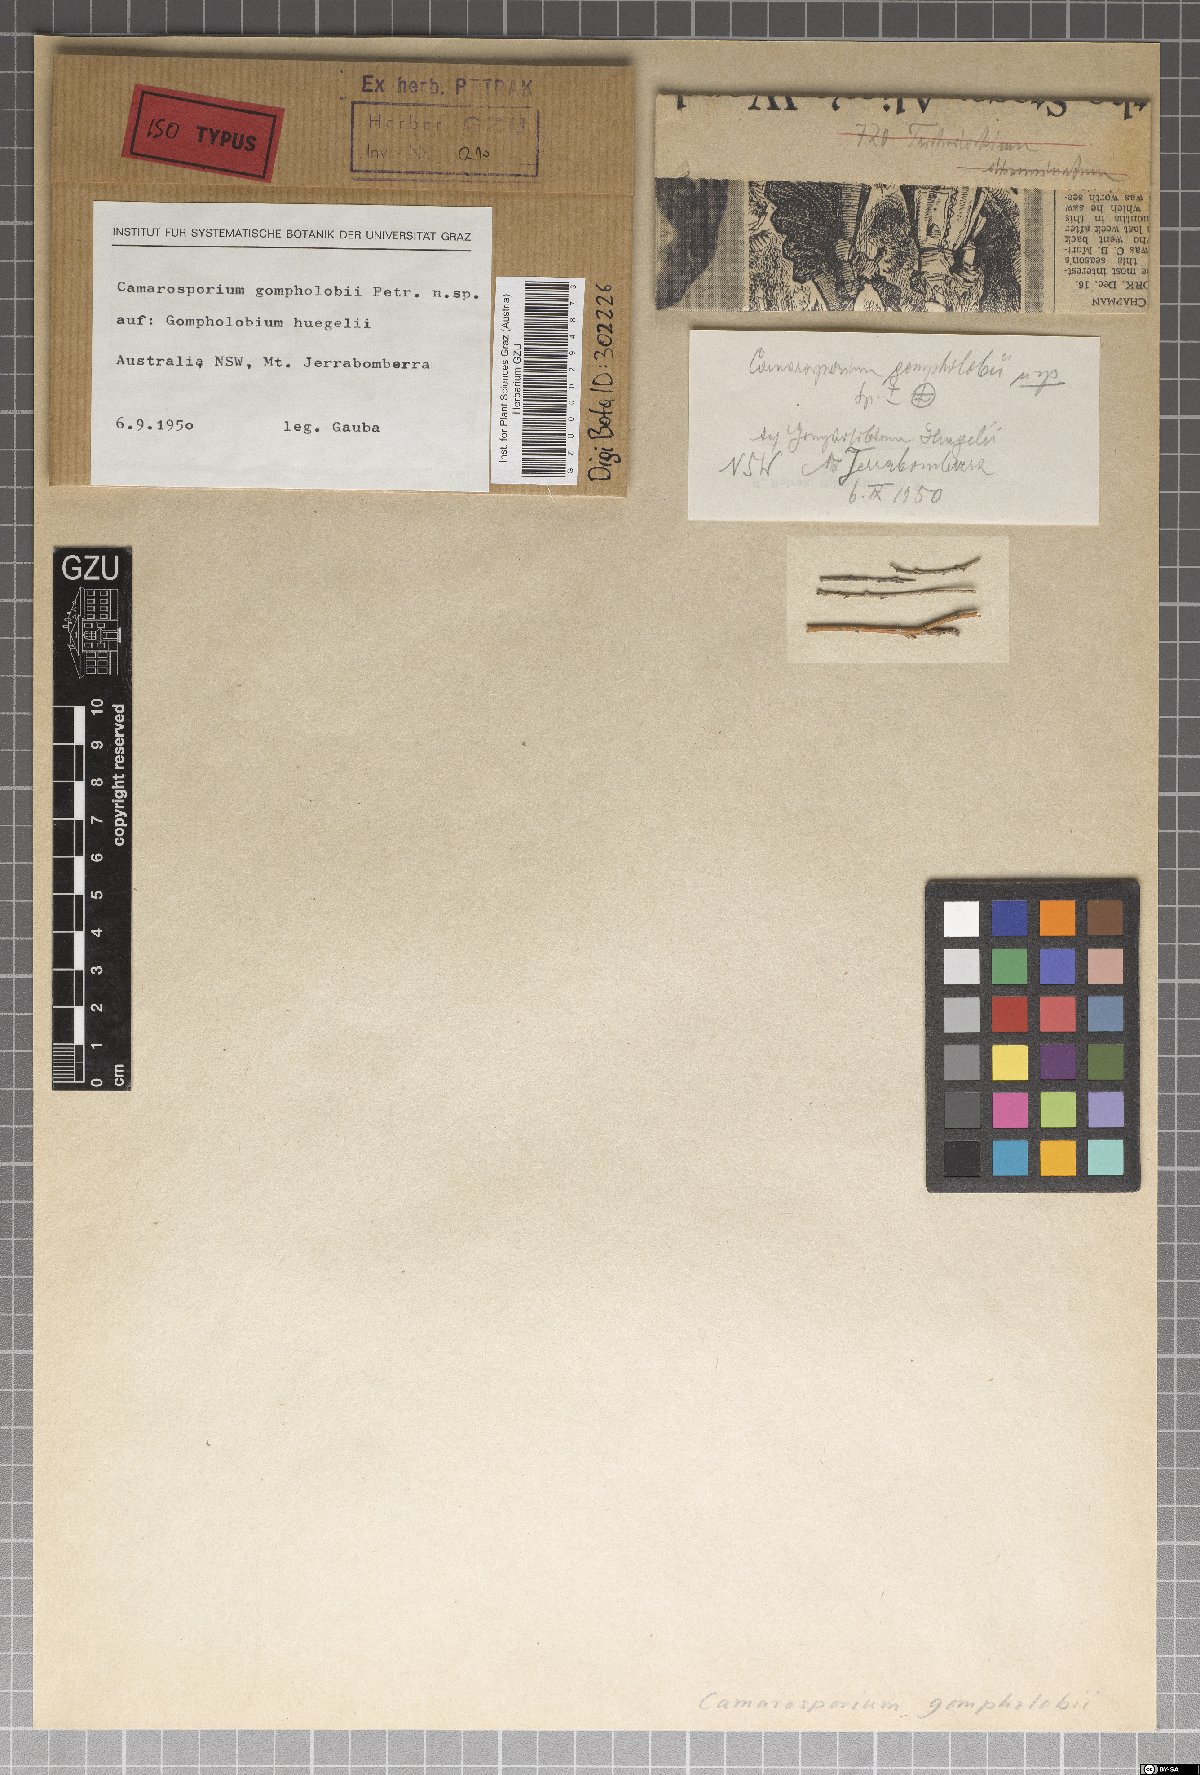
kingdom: Fungi
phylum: Ascomycota
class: Dothideomycetes
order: Pleosporales
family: Camarosporiaceae
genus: Camarosporium
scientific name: Camarosporium gompholobii
